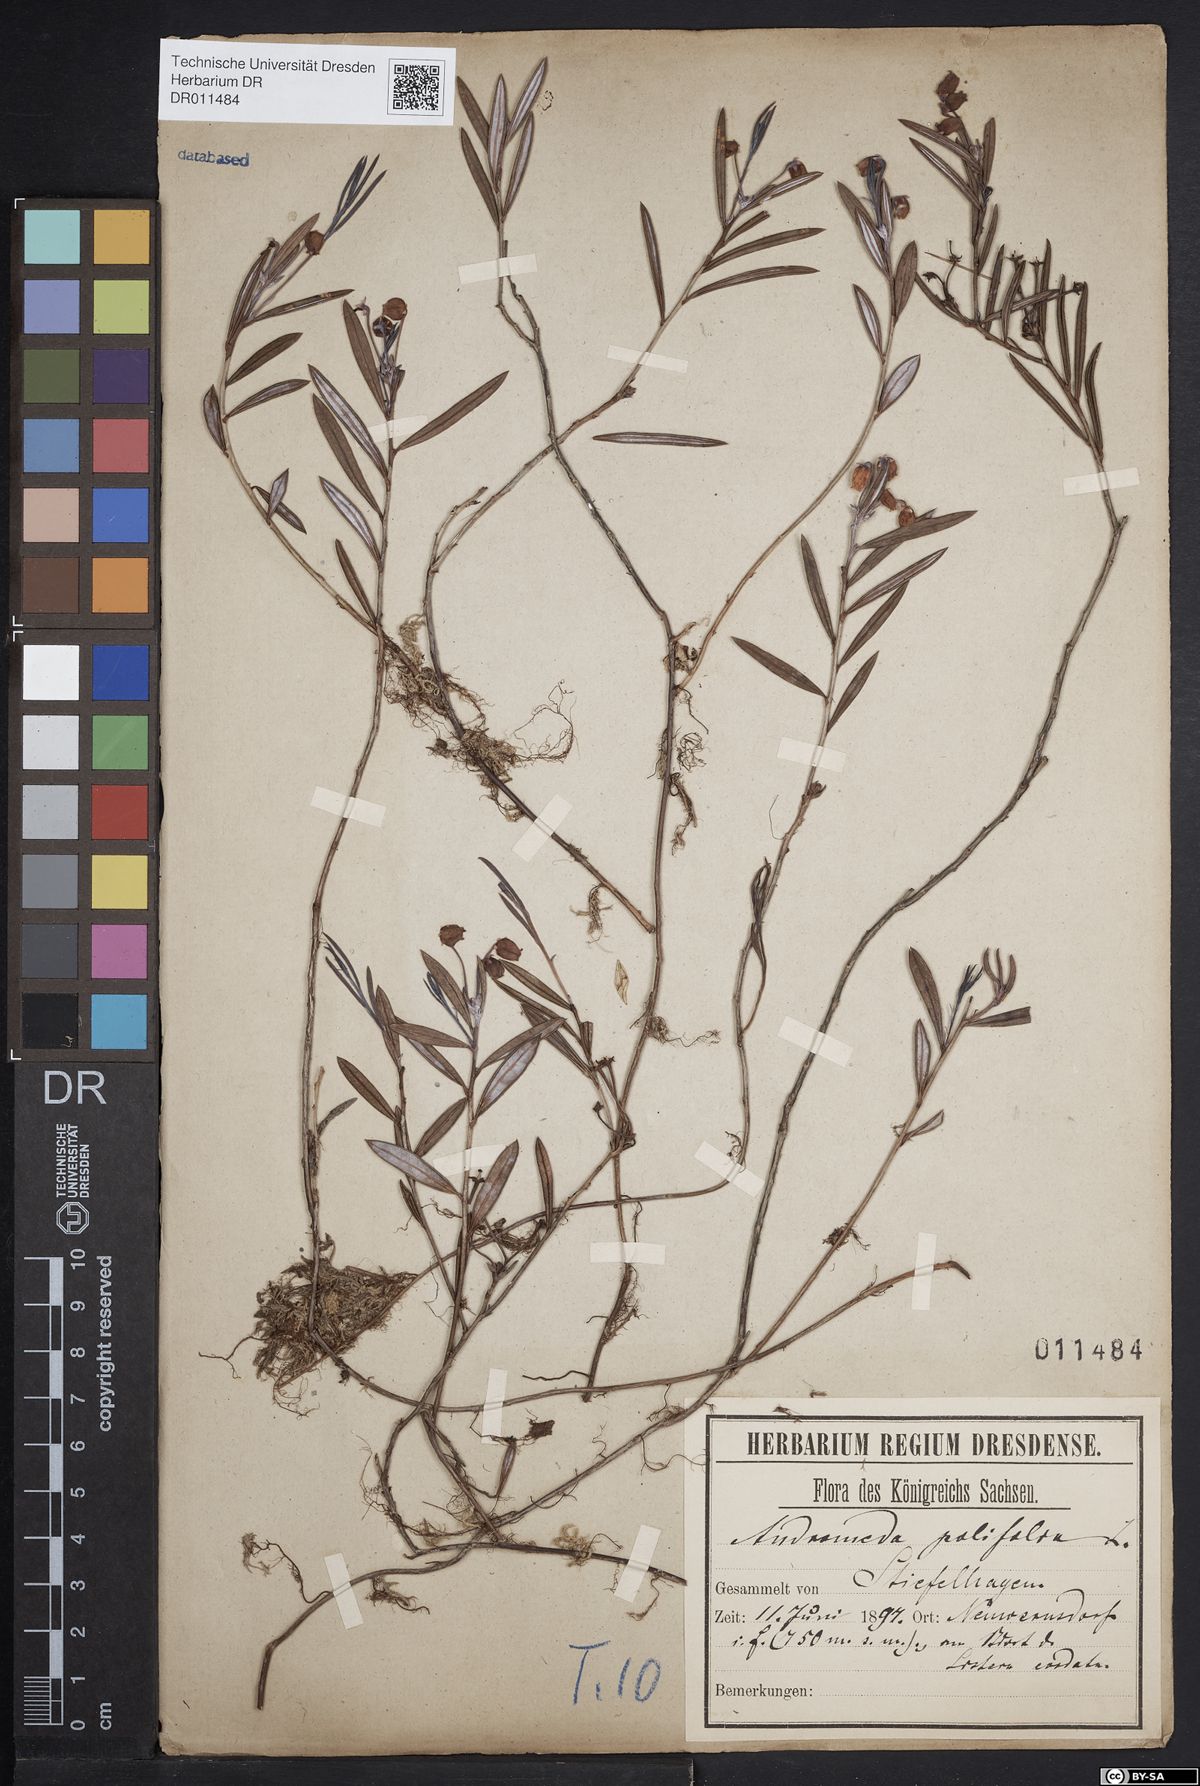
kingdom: Plantae
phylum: Tracheophyta
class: Magnoliopsida
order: Ericales
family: Ericaceae
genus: Andromeda
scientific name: Andromeda polifolia
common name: Bog-rosemary
